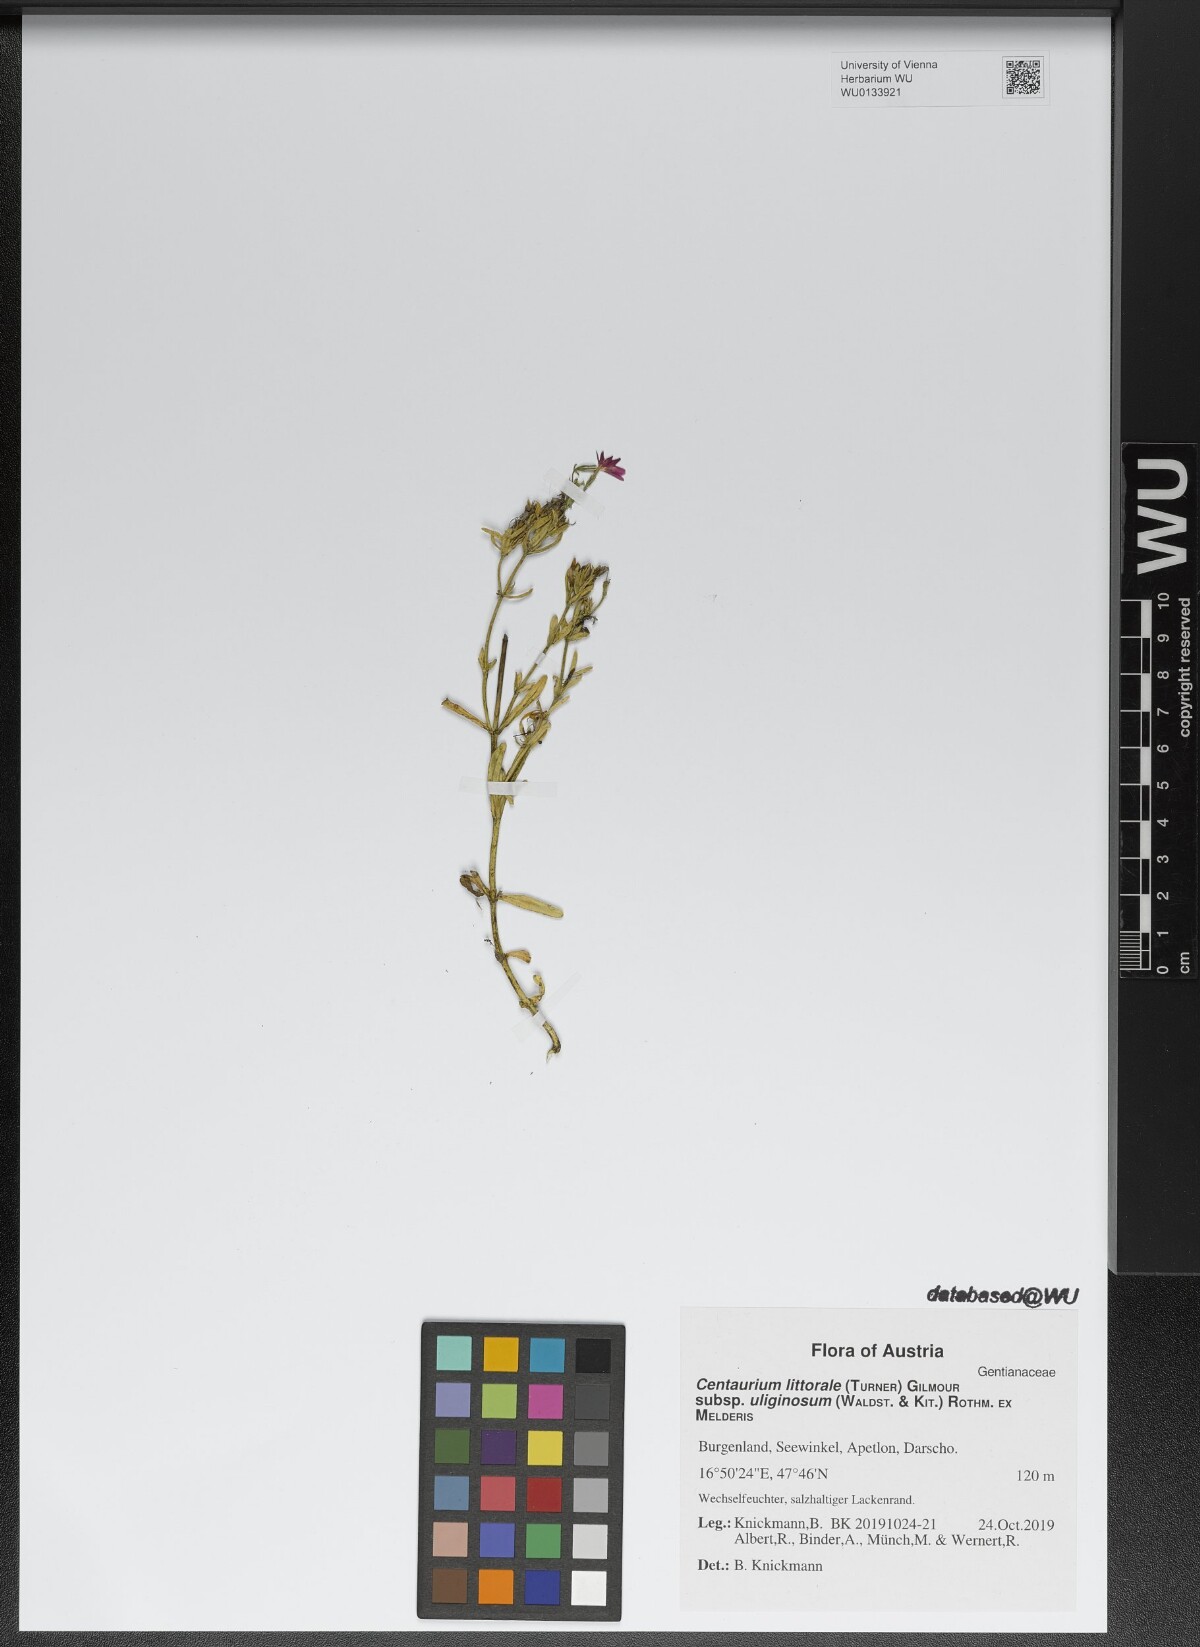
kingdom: Plantae
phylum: Tracheophyta
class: Magnoliopsida
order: Gentianales
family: Gentianaceae
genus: Centaurium
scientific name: Centaurium littorale
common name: Seaside centaury
